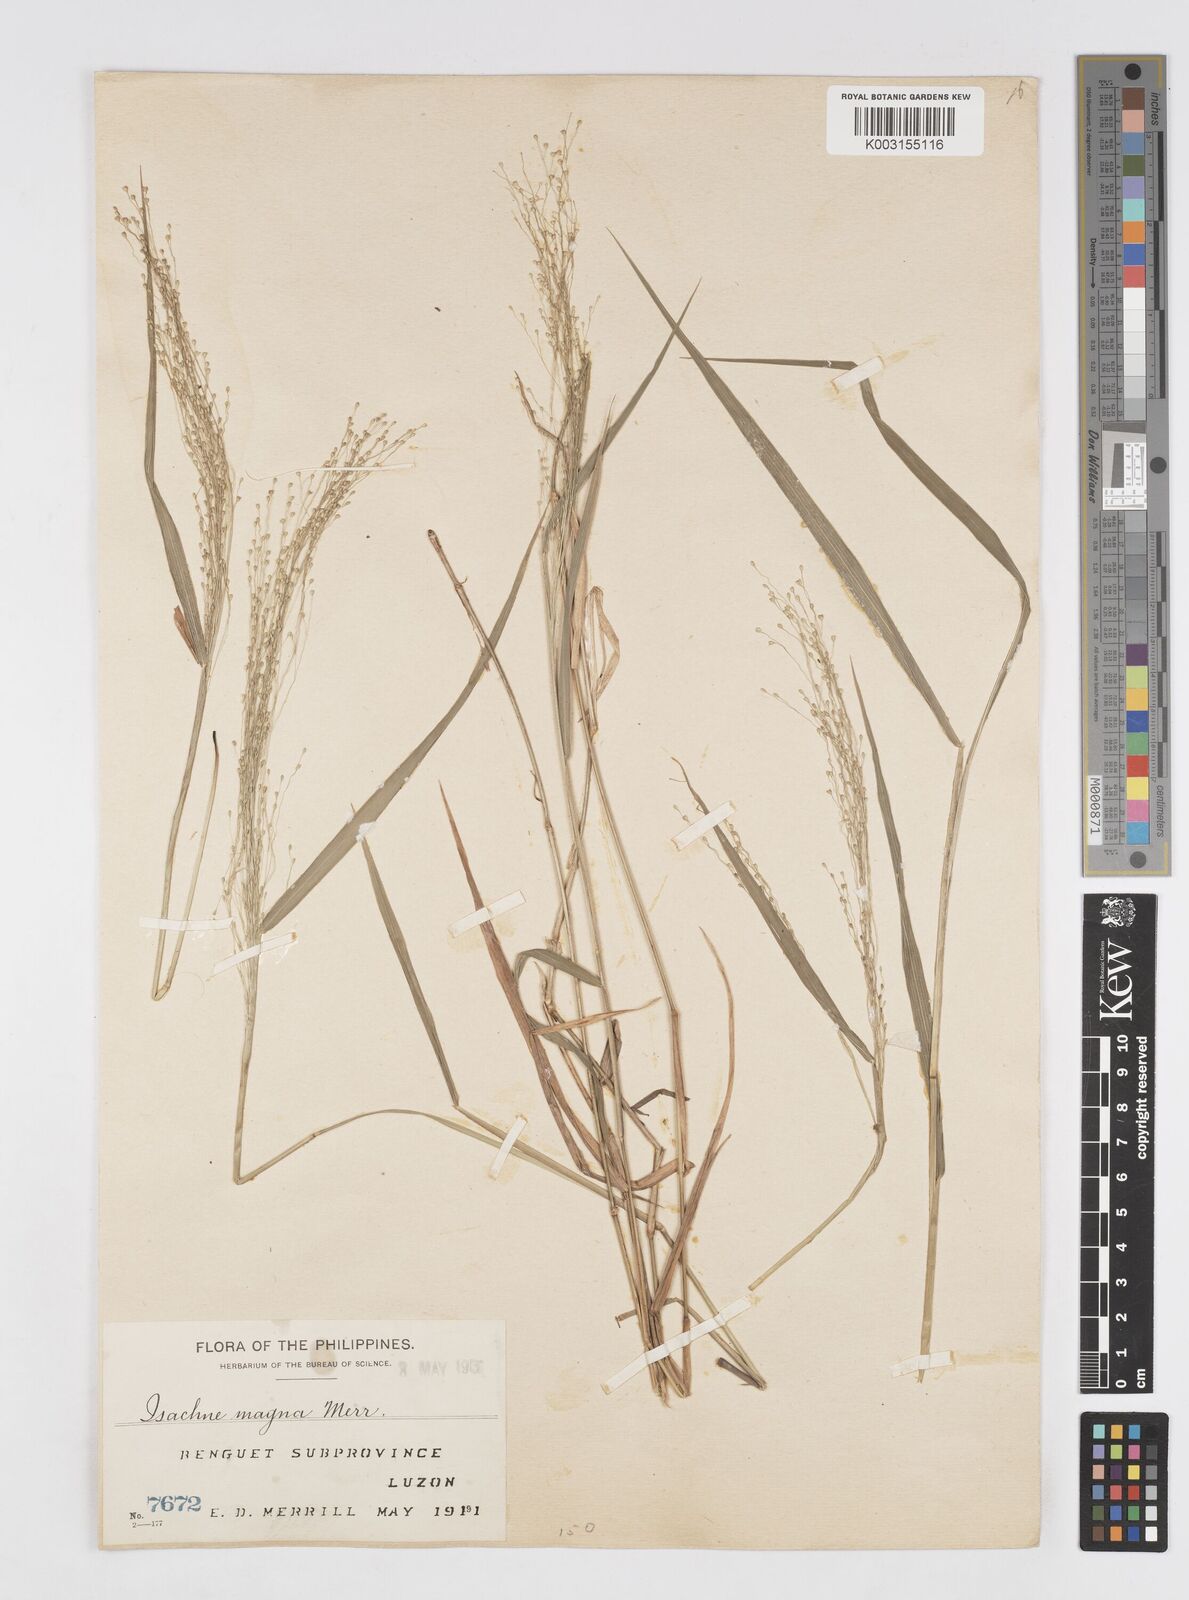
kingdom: Plantae
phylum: Tracheophyta
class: Liliopsida
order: Poales
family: Poaceae
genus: Isachne
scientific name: Isachne albens
